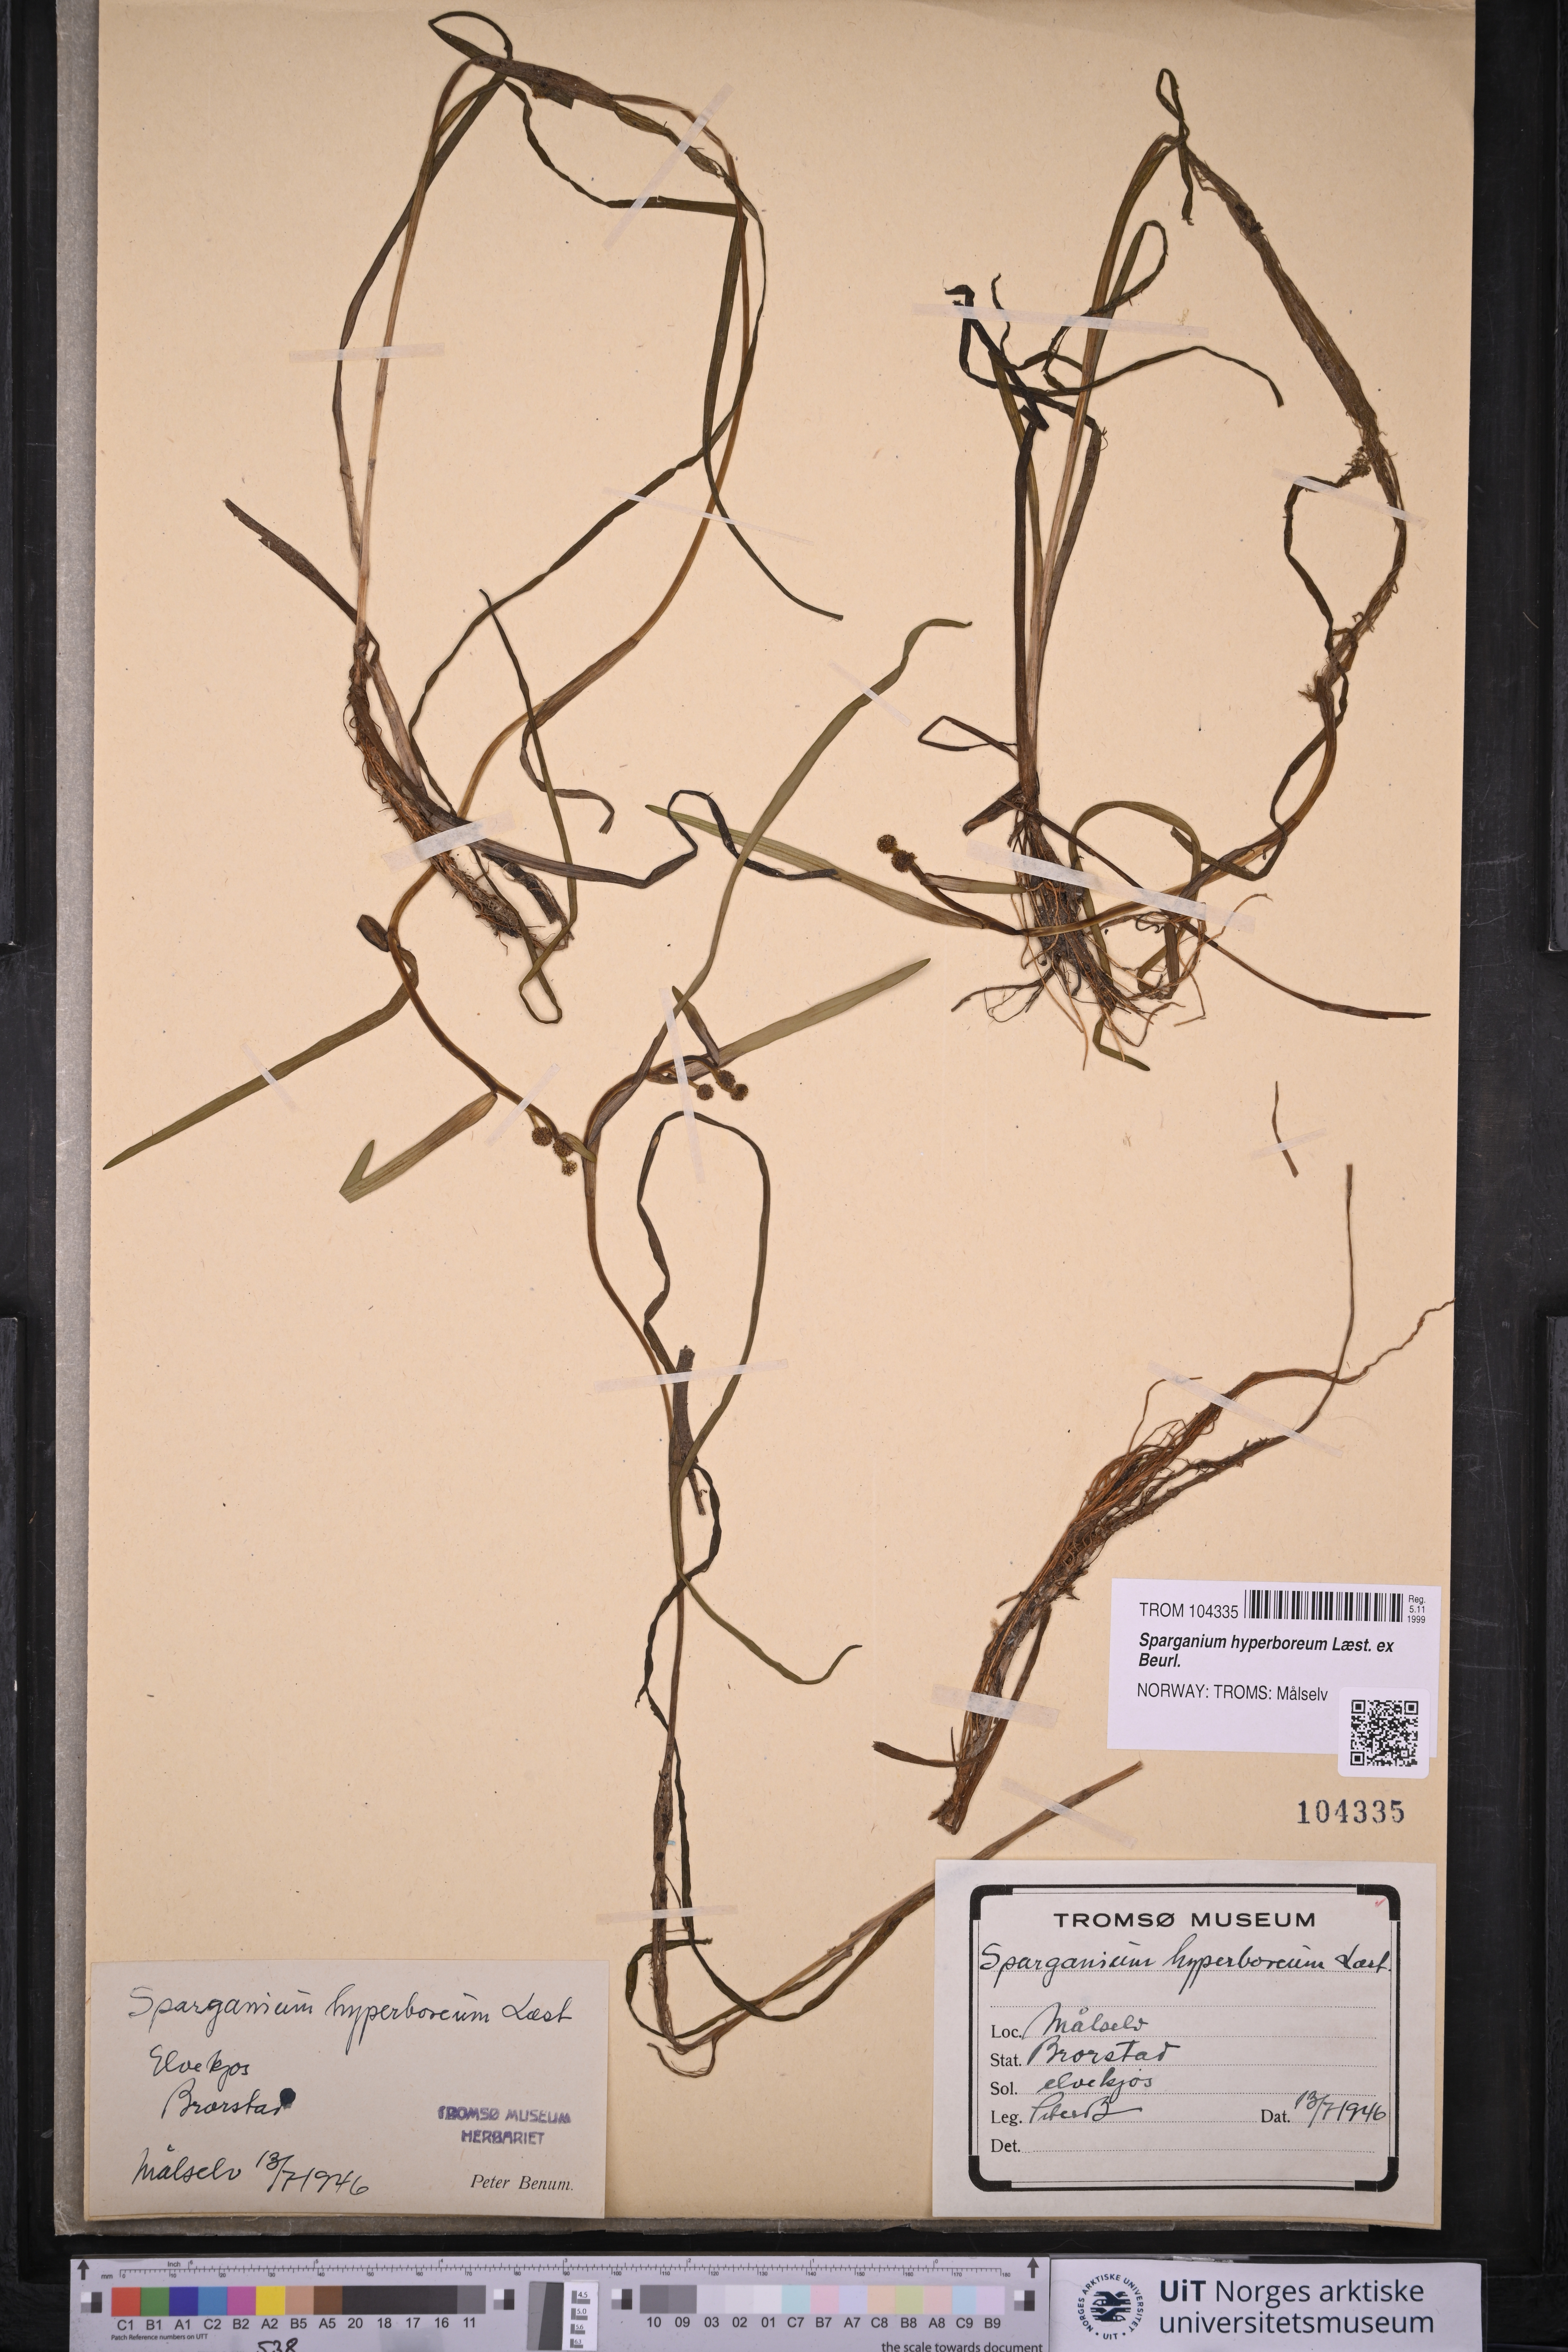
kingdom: Plantae
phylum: Tracheophyta
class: Liliopsida
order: Poales
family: Typhaceae
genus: Sparganium
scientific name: Sparganium hyperboreum
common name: Arctic burreed
